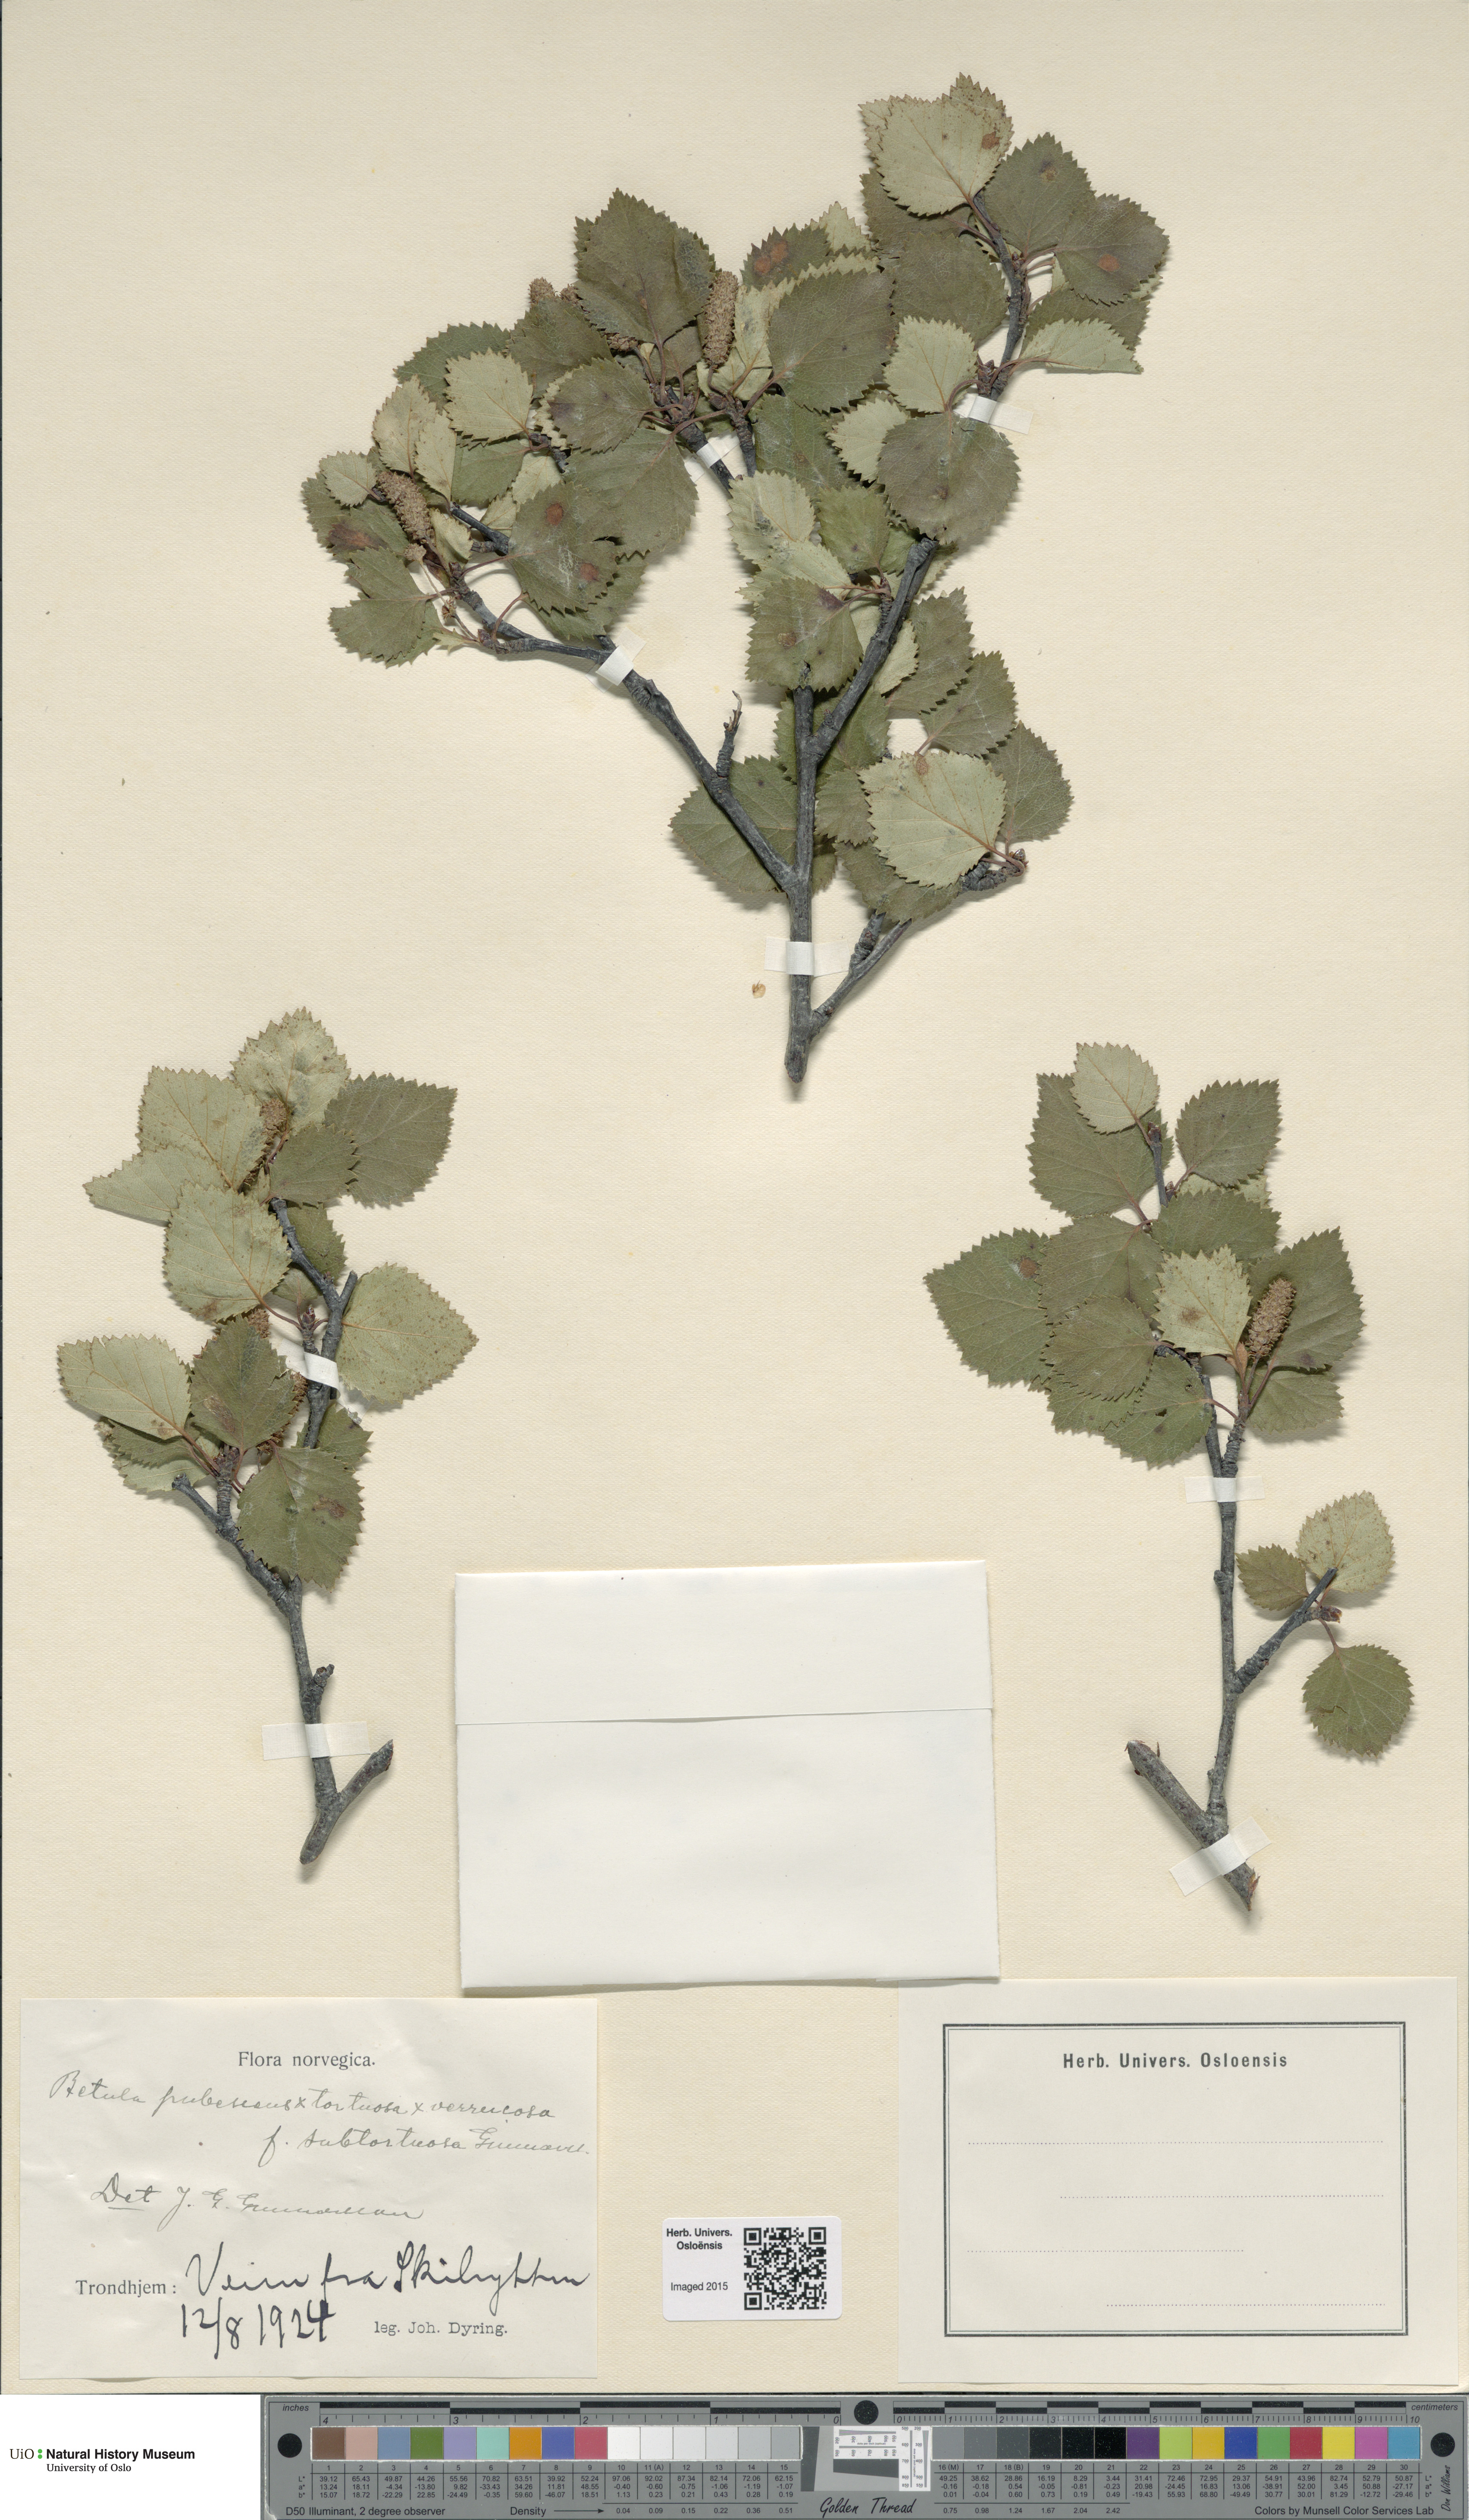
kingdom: Plantae
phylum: Tracheophyta
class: Magnoliopsida
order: Fagales
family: Betulaceae
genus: Betula
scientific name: Betula pubescens
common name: Downy birch
